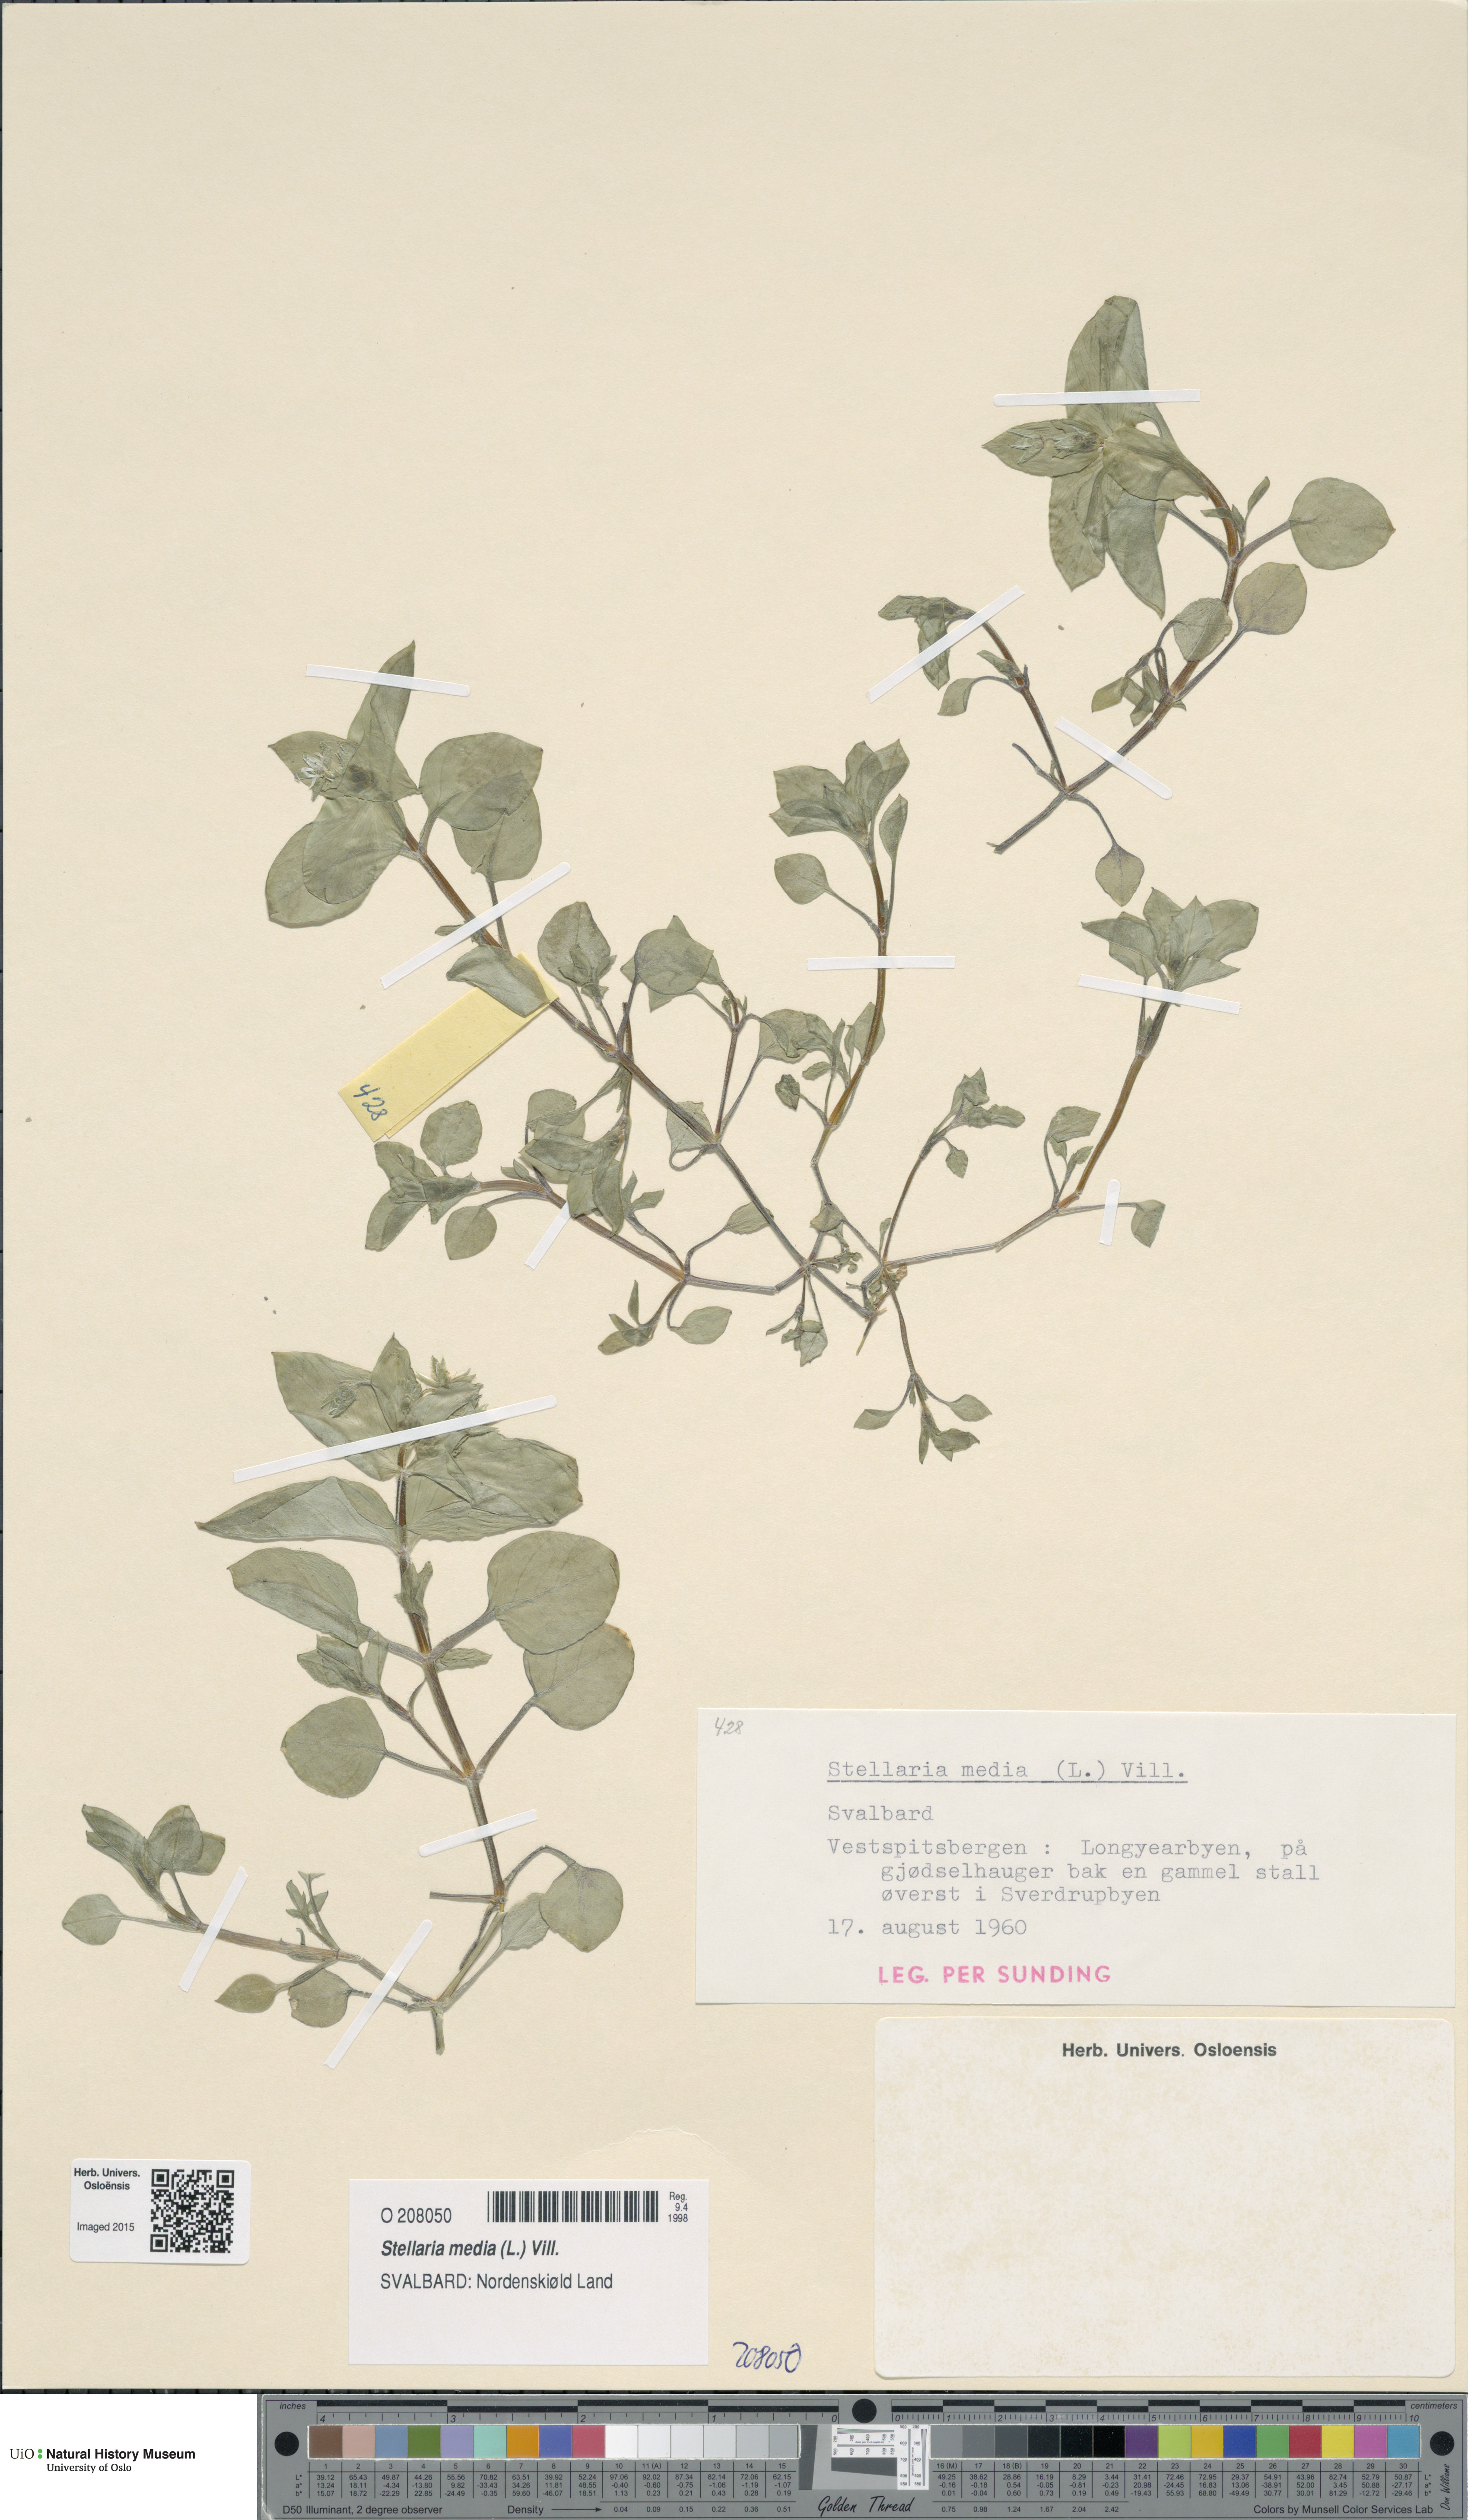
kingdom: Plantae
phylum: Tracheophyta
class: Magnoliopsida
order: Caryophyllales
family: Caryophyllaceae
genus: Stellaria
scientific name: Stellaria media
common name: Common chickweed
